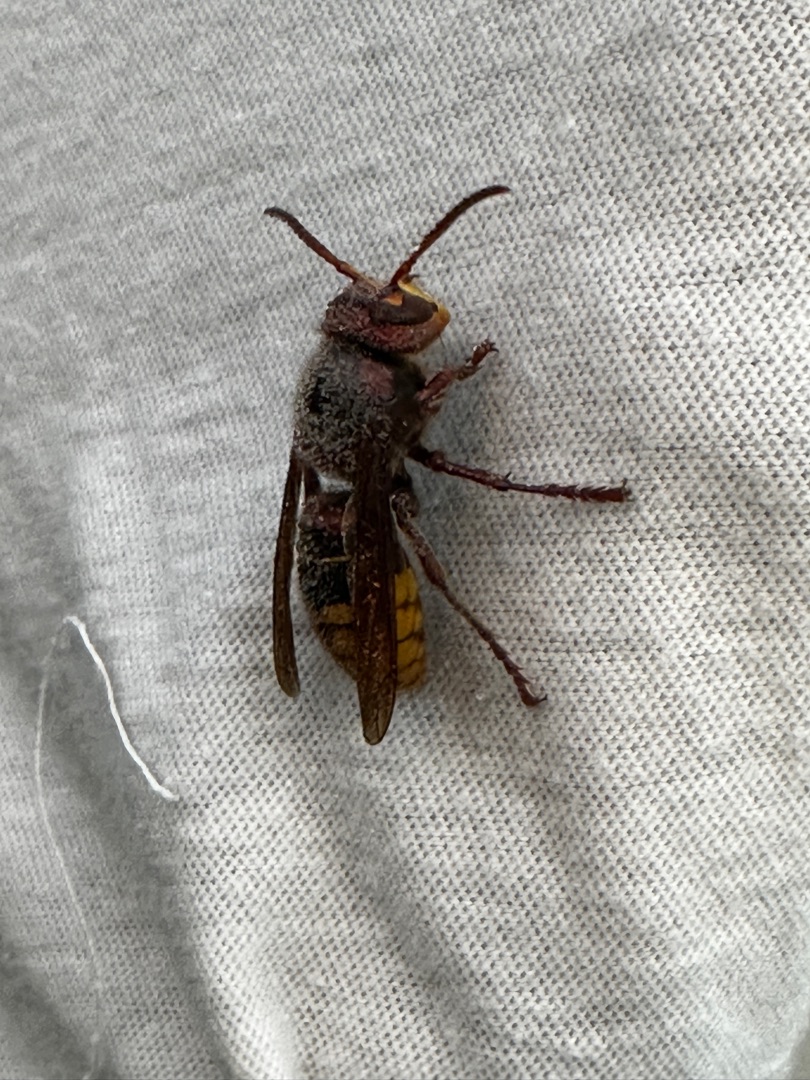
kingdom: Animalia
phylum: Arthropoda
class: Insecta
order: Hymenoptera
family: Vespidae
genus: Vespa
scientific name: Vespa crabro
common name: Stor gedehams
